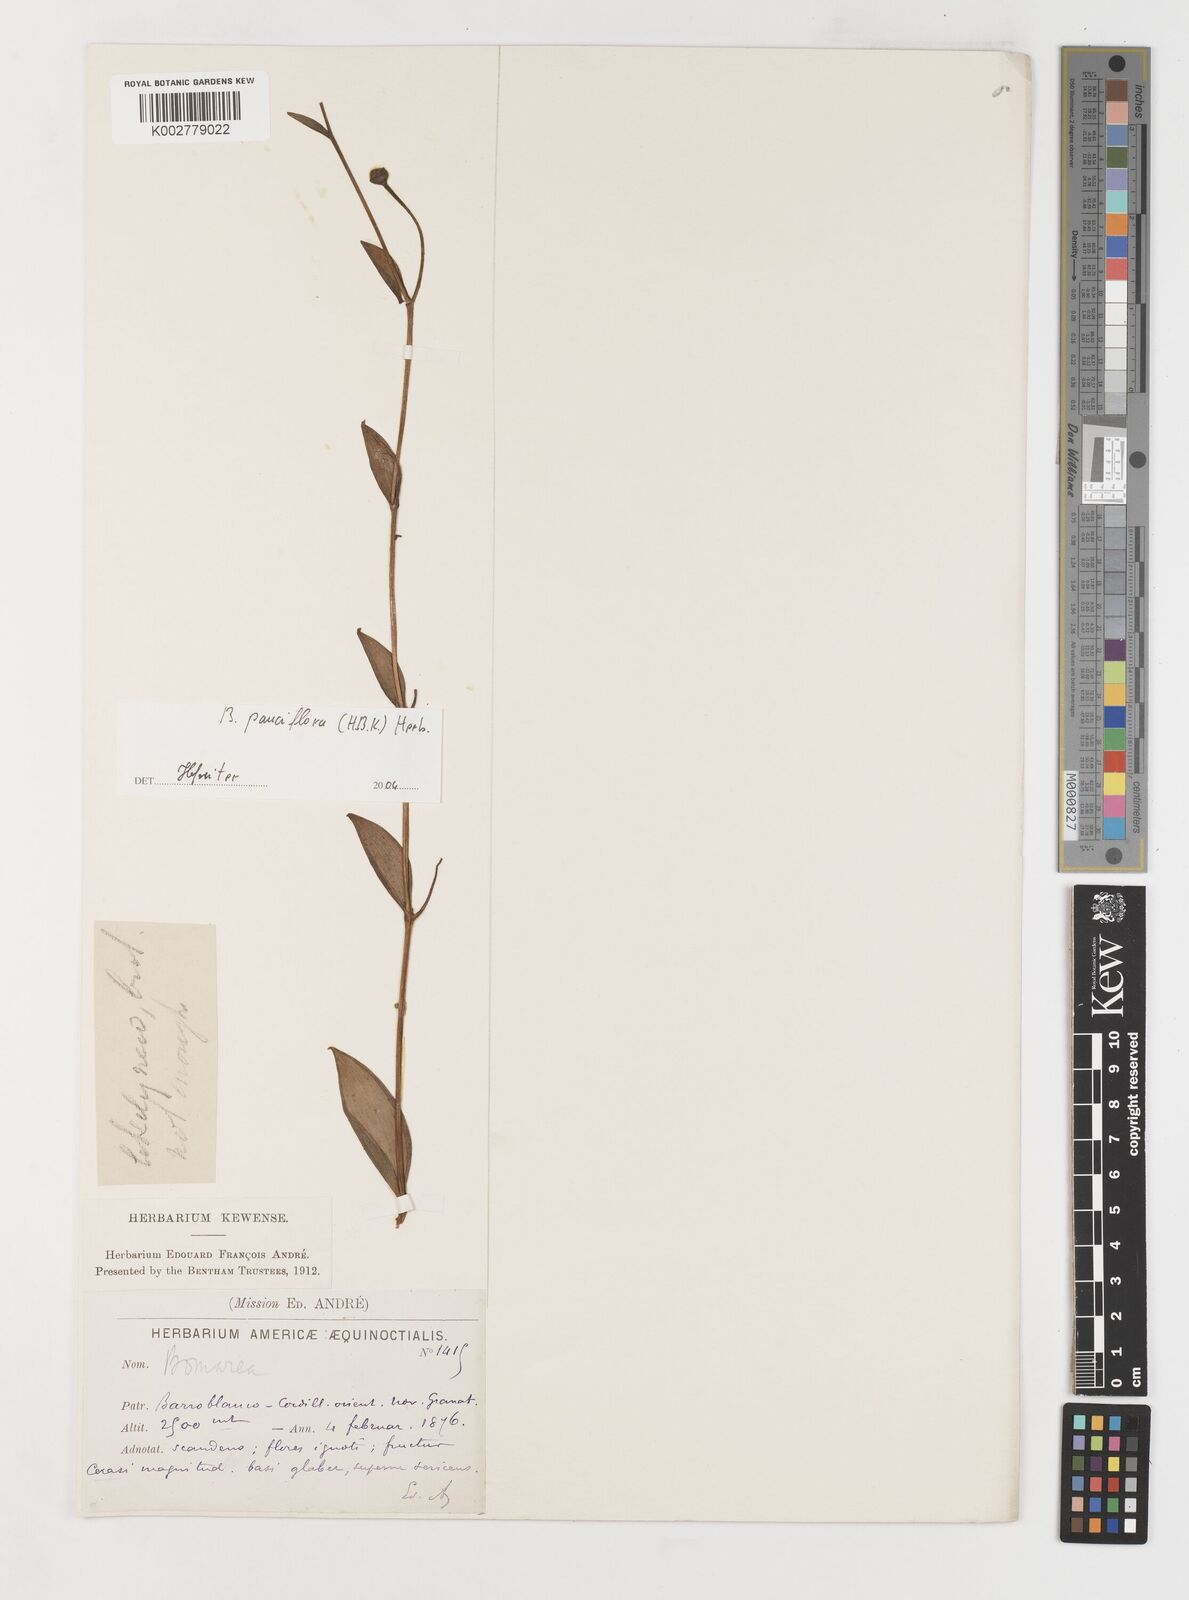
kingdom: Plantae
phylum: Tracheophyta
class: Liliopsida
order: Liliales
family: Alstroemeriaceae
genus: Bomarea
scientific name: Bomarea pauciflora
